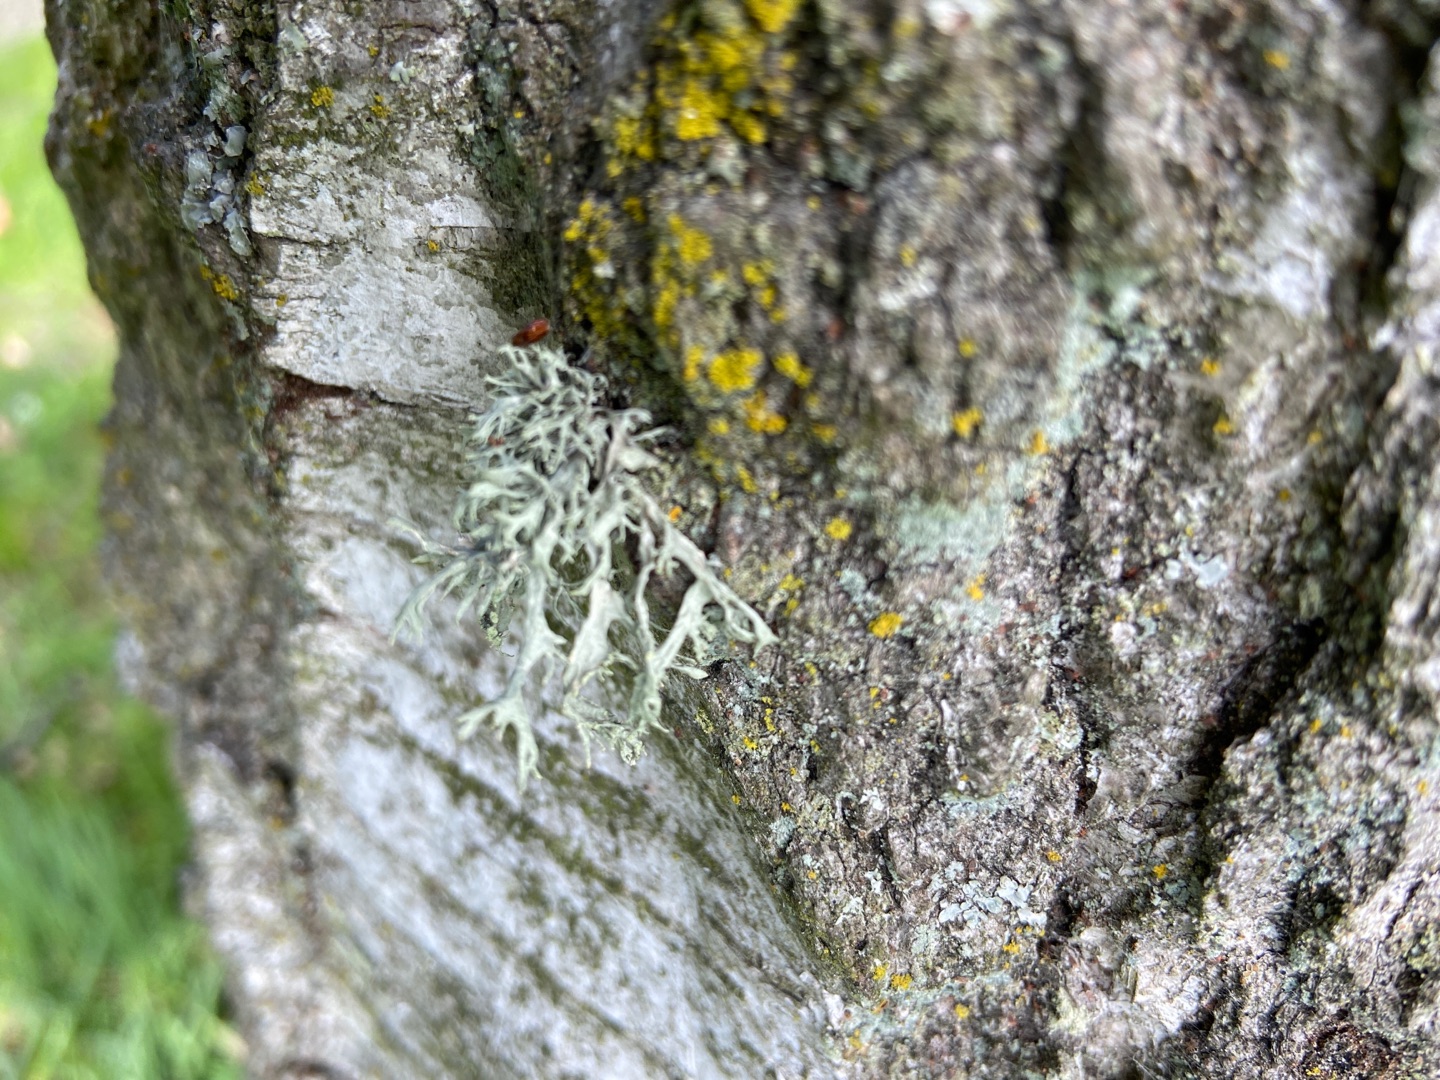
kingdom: Fungi
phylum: Ascomycota
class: Lecanoromycetes
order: Lecanorales
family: Ramalinaceae
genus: Ramalina
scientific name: Ramalina farinacea
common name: Melet grenlav
